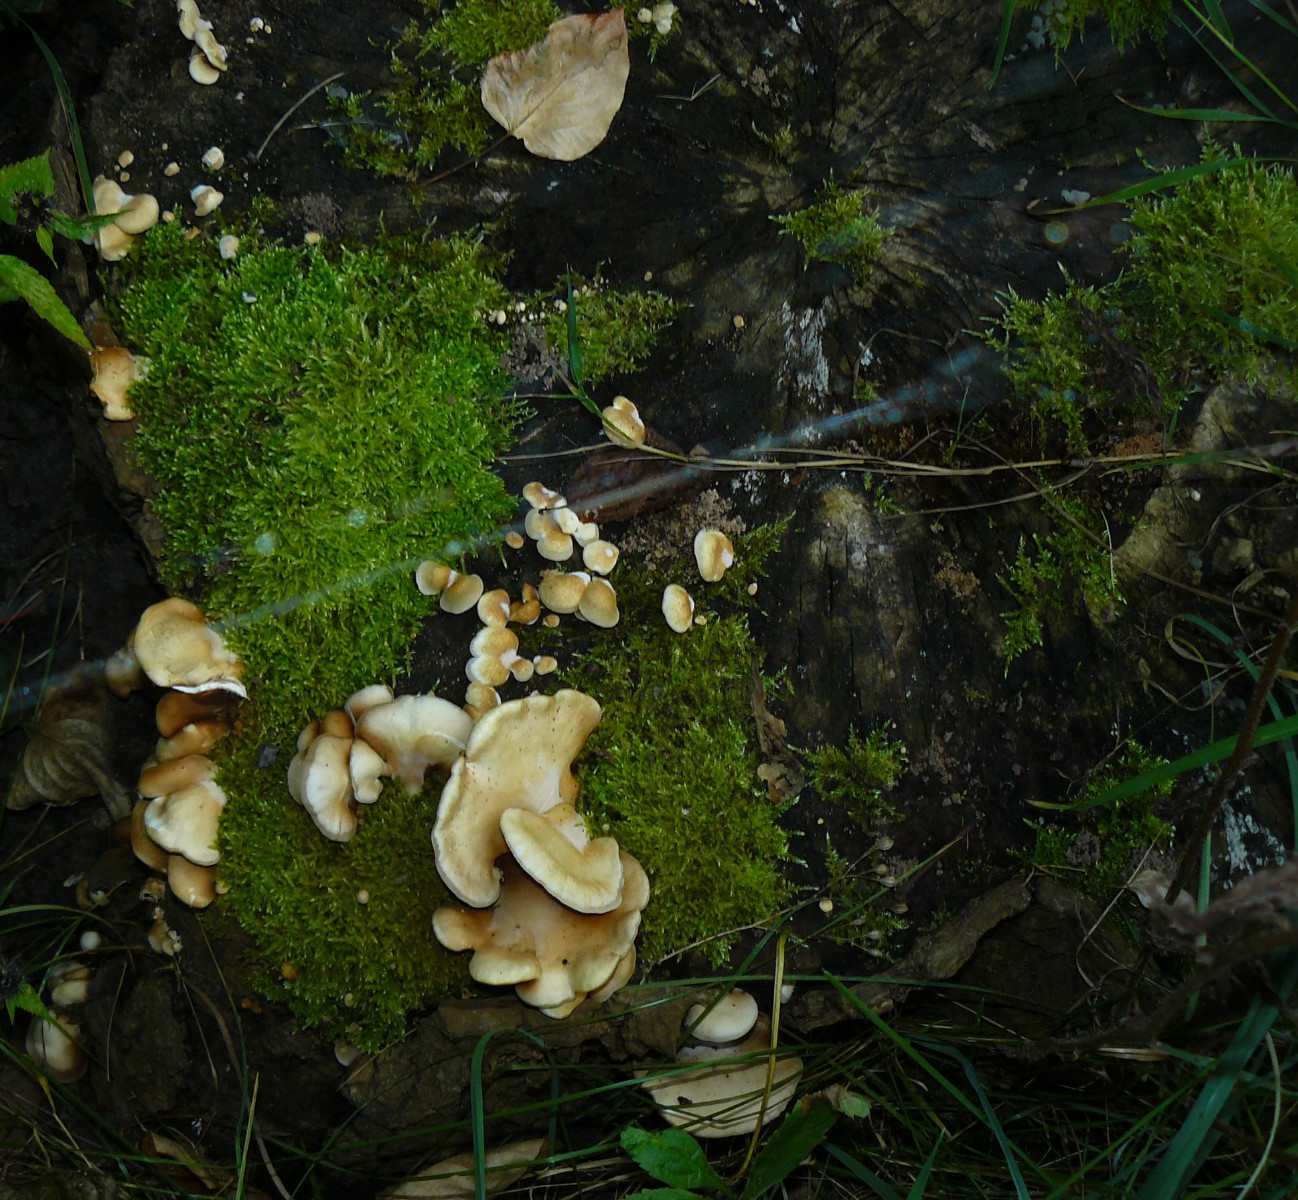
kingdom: Fungi
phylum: Basidiomycota
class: Agaricomycetes
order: Agaricales
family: Crepidotaceae
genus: Crepidotus
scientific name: Crepidotus calolepis
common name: småskællet muslingesvamp
